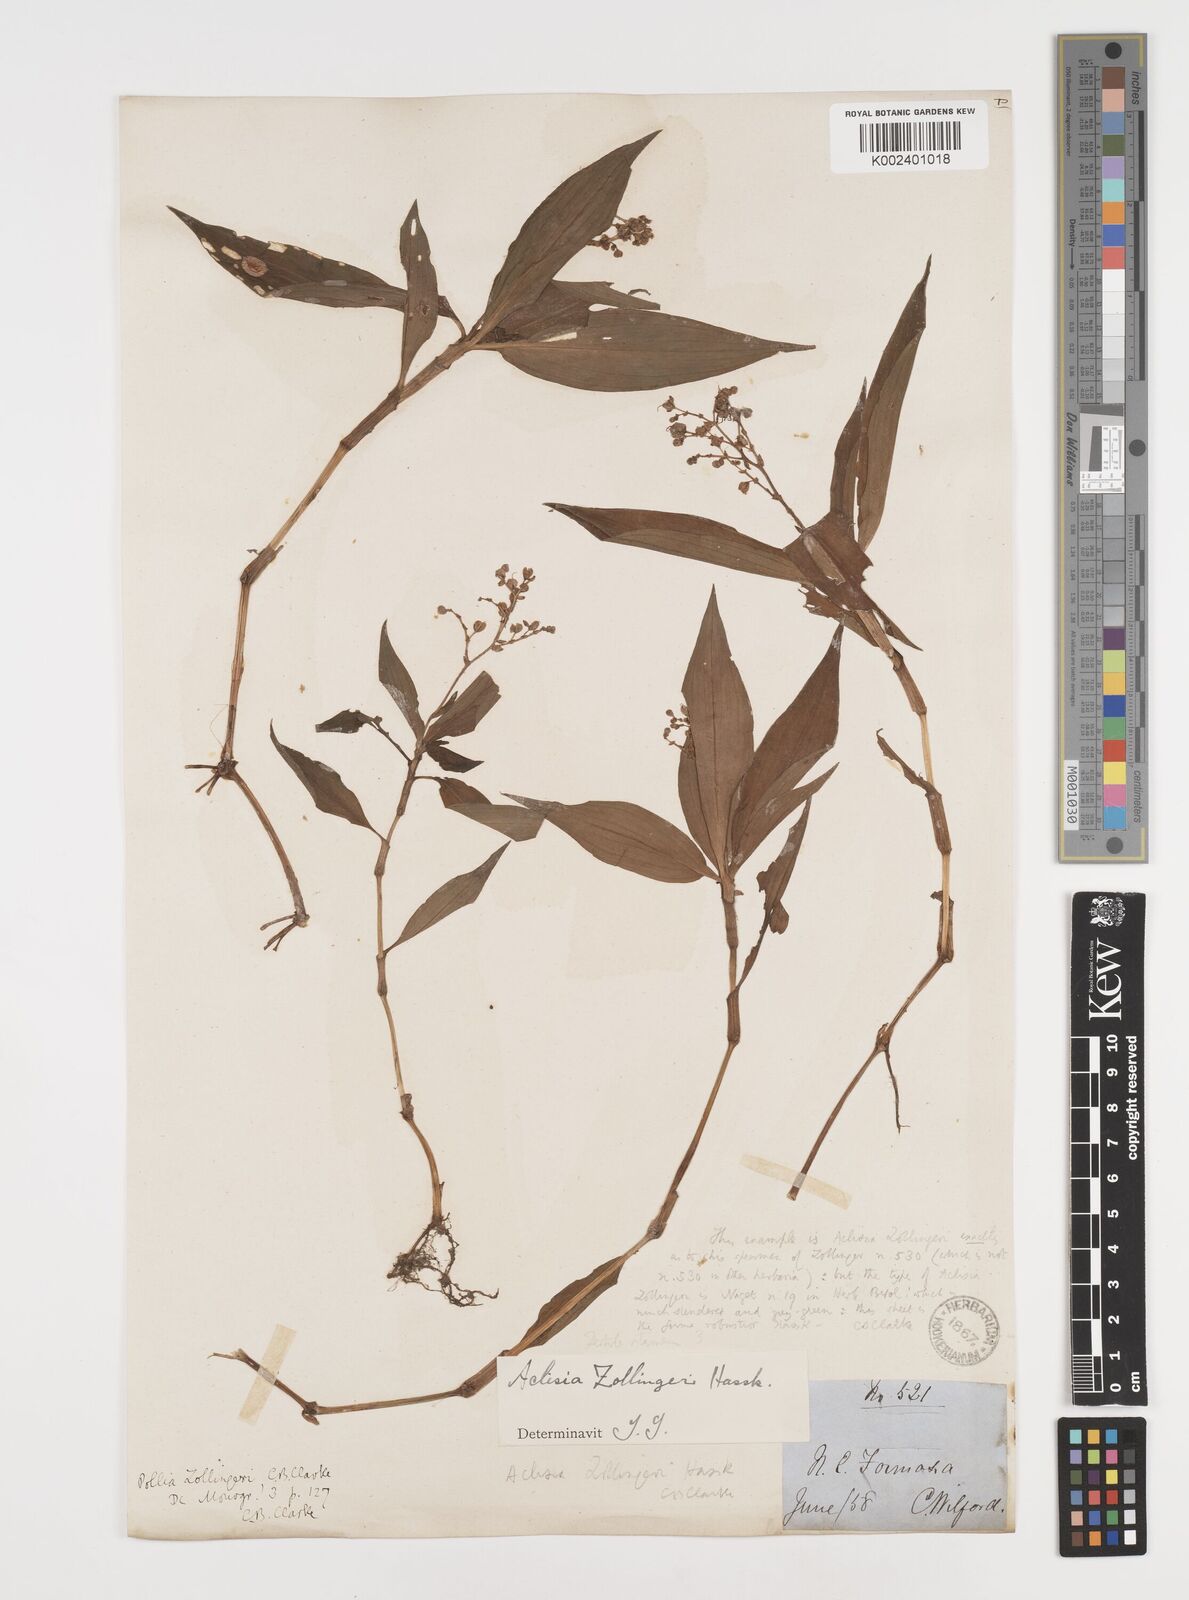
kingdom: Plantae
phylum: Tracheophyta
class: Liliopsida
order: Commelinales
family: Commelinaceae
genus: Pollia
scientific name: Pollia zollingeri
